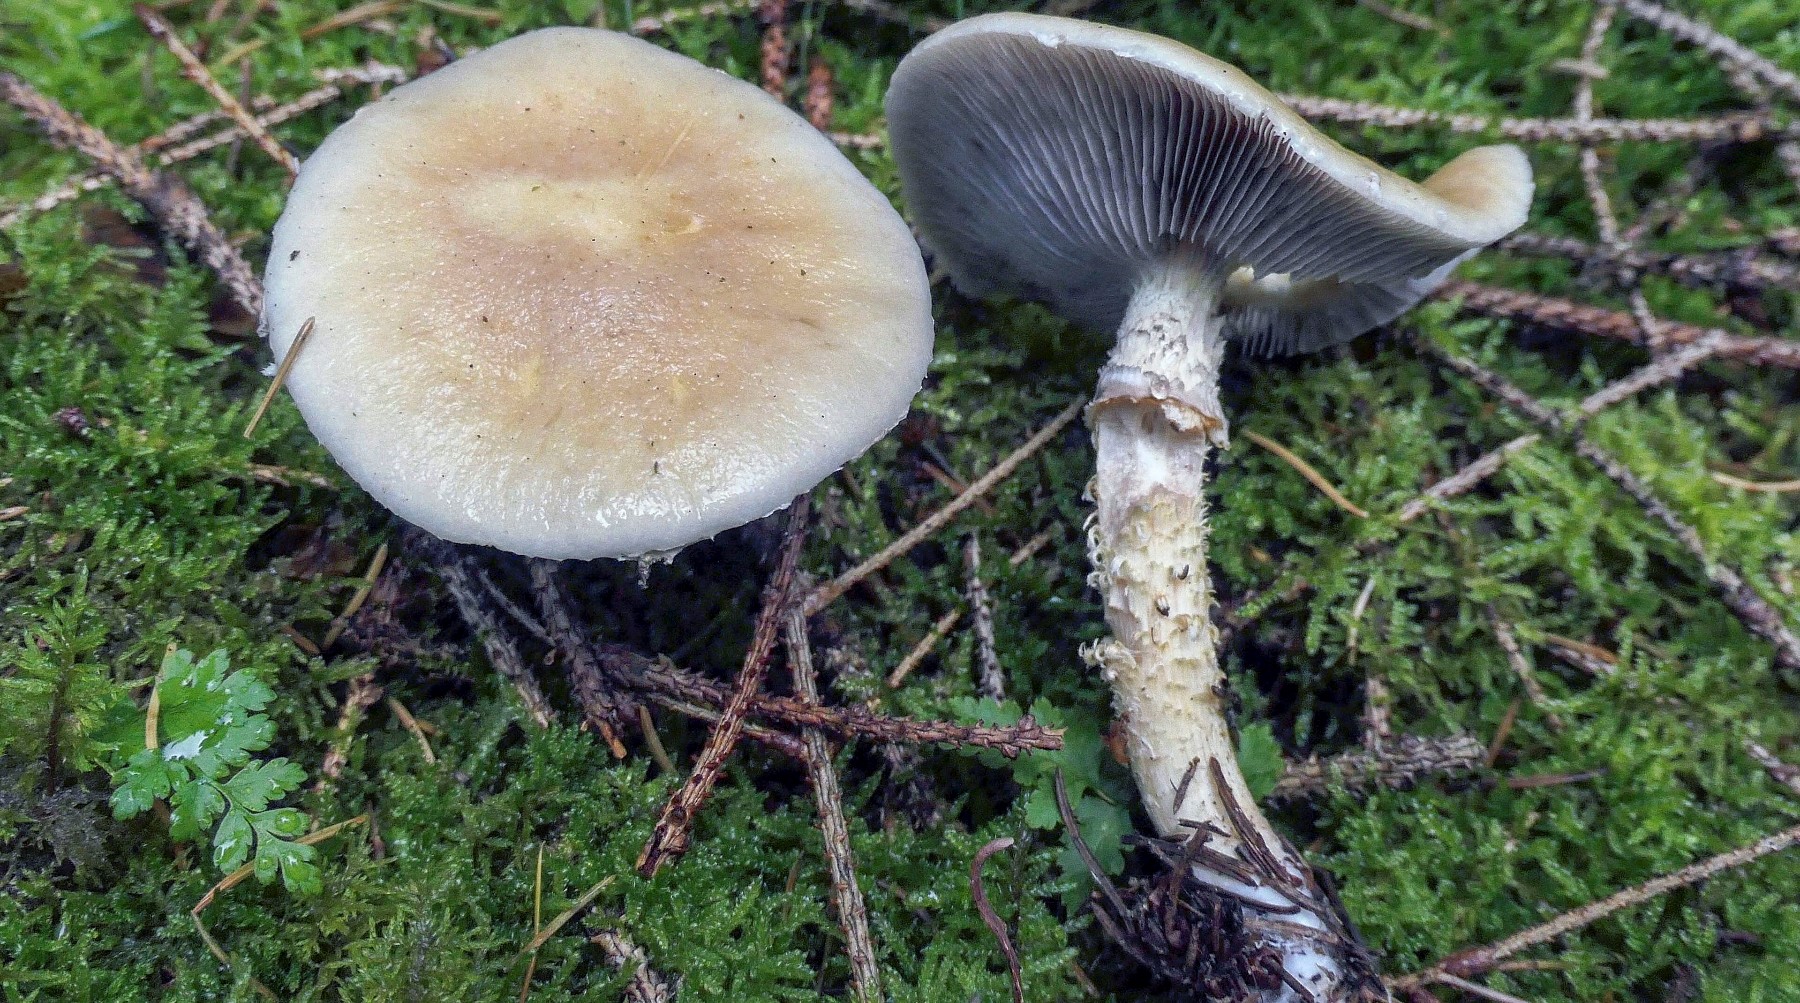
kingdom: Fungi
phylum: Basidiomycota
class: Agaricomycetes
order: Agaricales
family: Strophariaceae
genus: Stropharia
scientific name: Stropharia hornemannii
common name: nordisk bredblad
